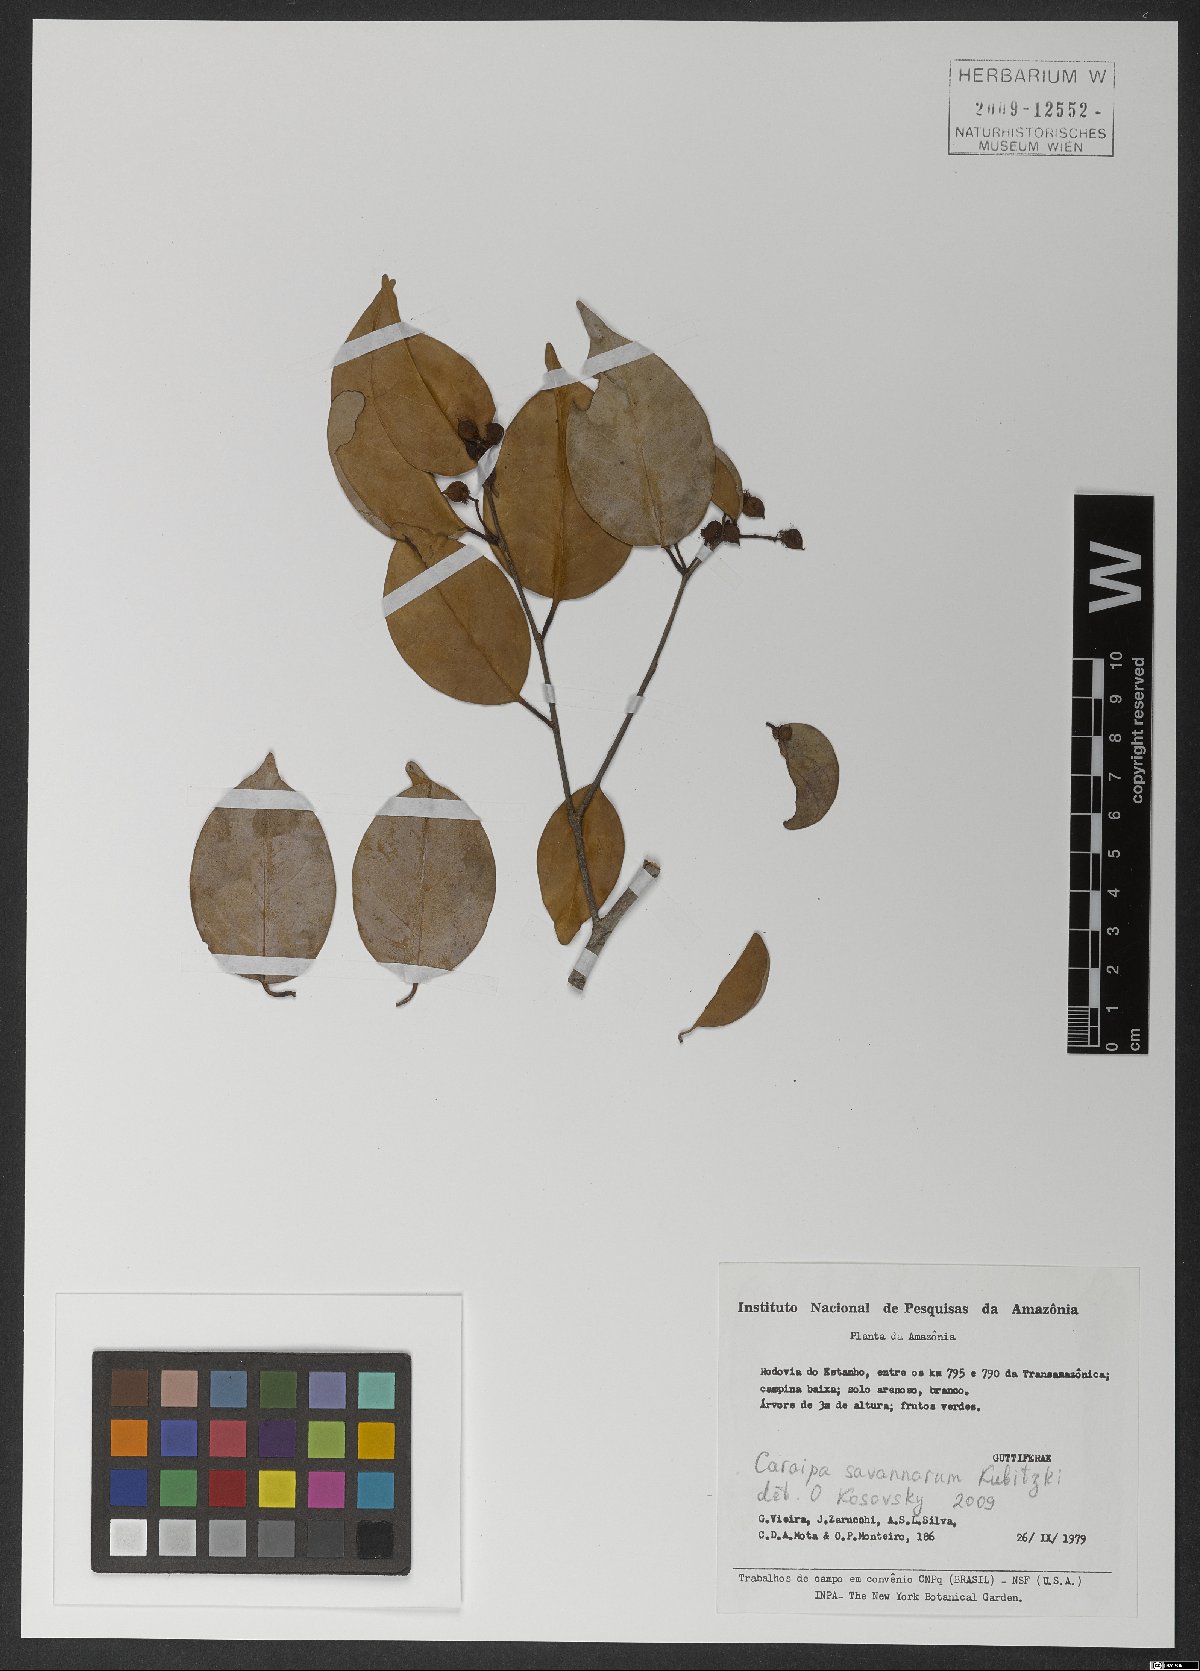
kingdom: Plantae
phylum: Tracheophyta
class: Magnoliopsida
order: Malpighiales
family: Calophyllaceae
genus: Caraipa
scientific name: Caraipa savannarum
